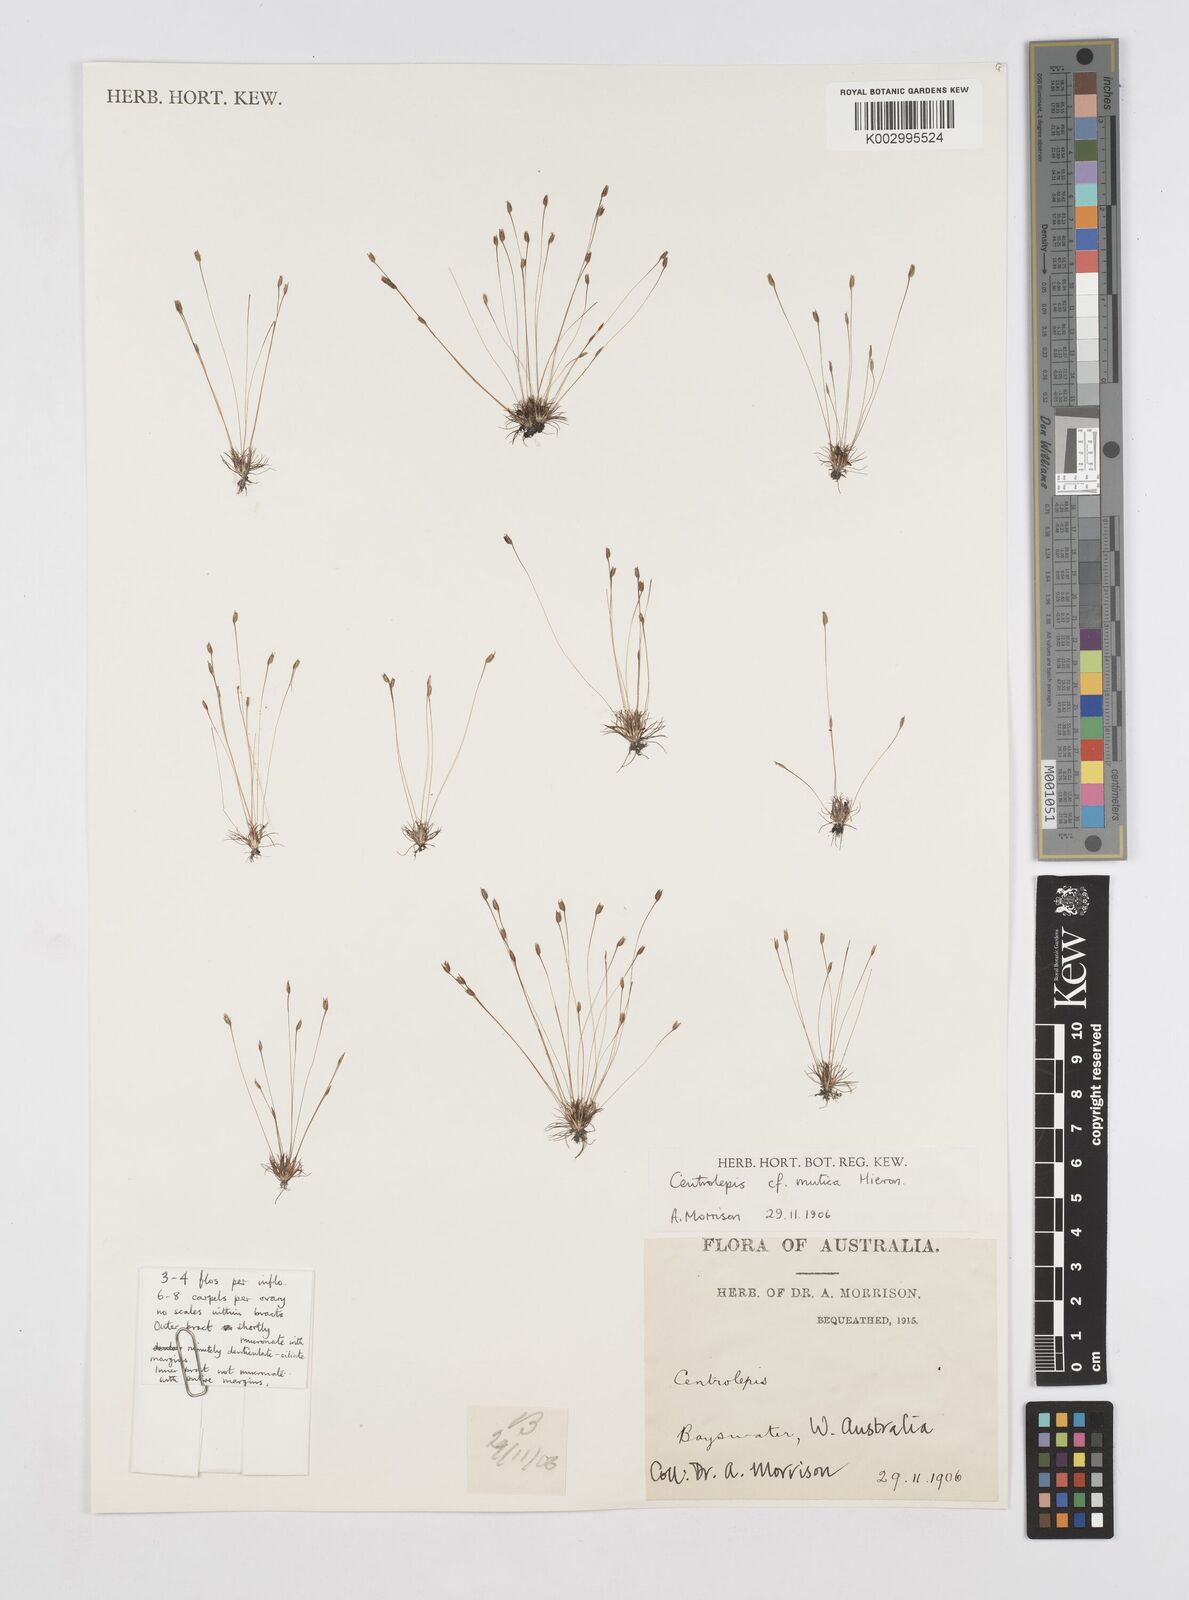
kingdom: Plantae
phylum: Tracheophyta
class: Liliopsida
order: Poales
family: Restionaceae
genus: Centrolepis
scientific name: Centrolepis mutica
